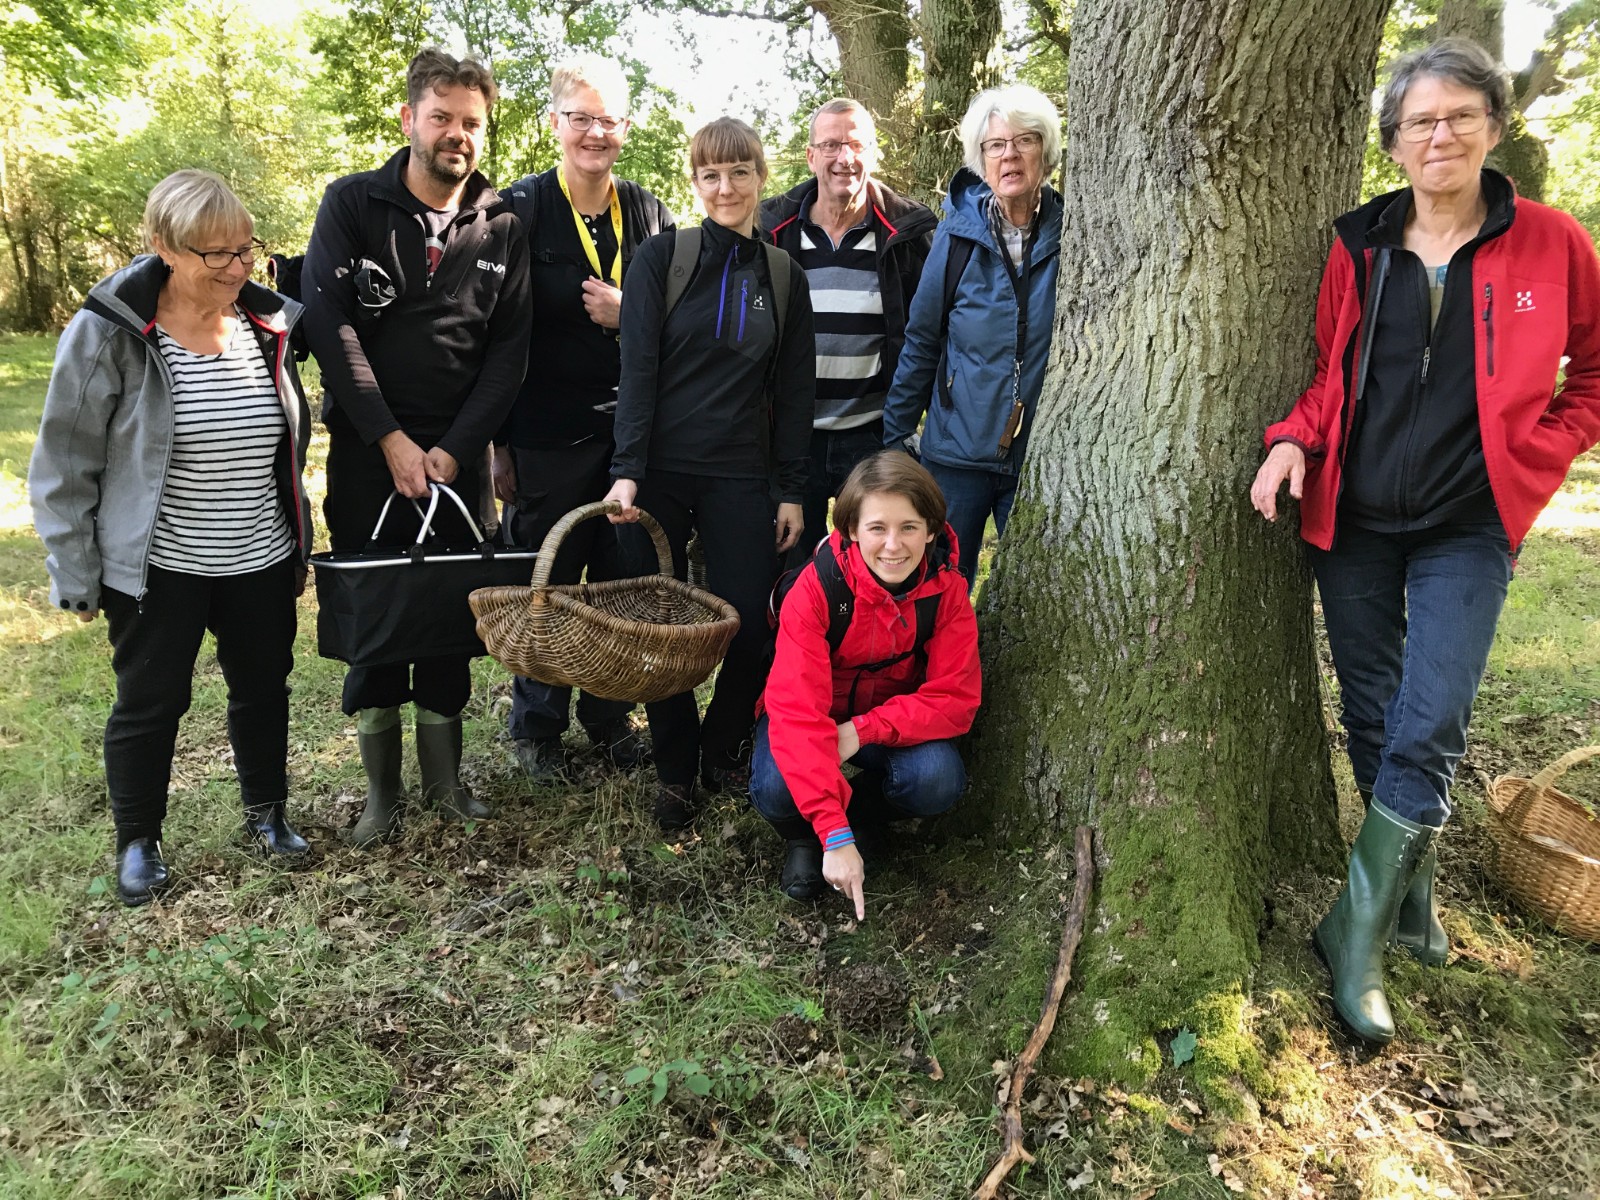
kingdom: Fungi
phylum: Basidiomycota
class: Agaricomycetes
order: Polyporales
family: Grifolaceae
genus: Grifola
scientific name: Grifola frondosa
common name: tueporesvamp
